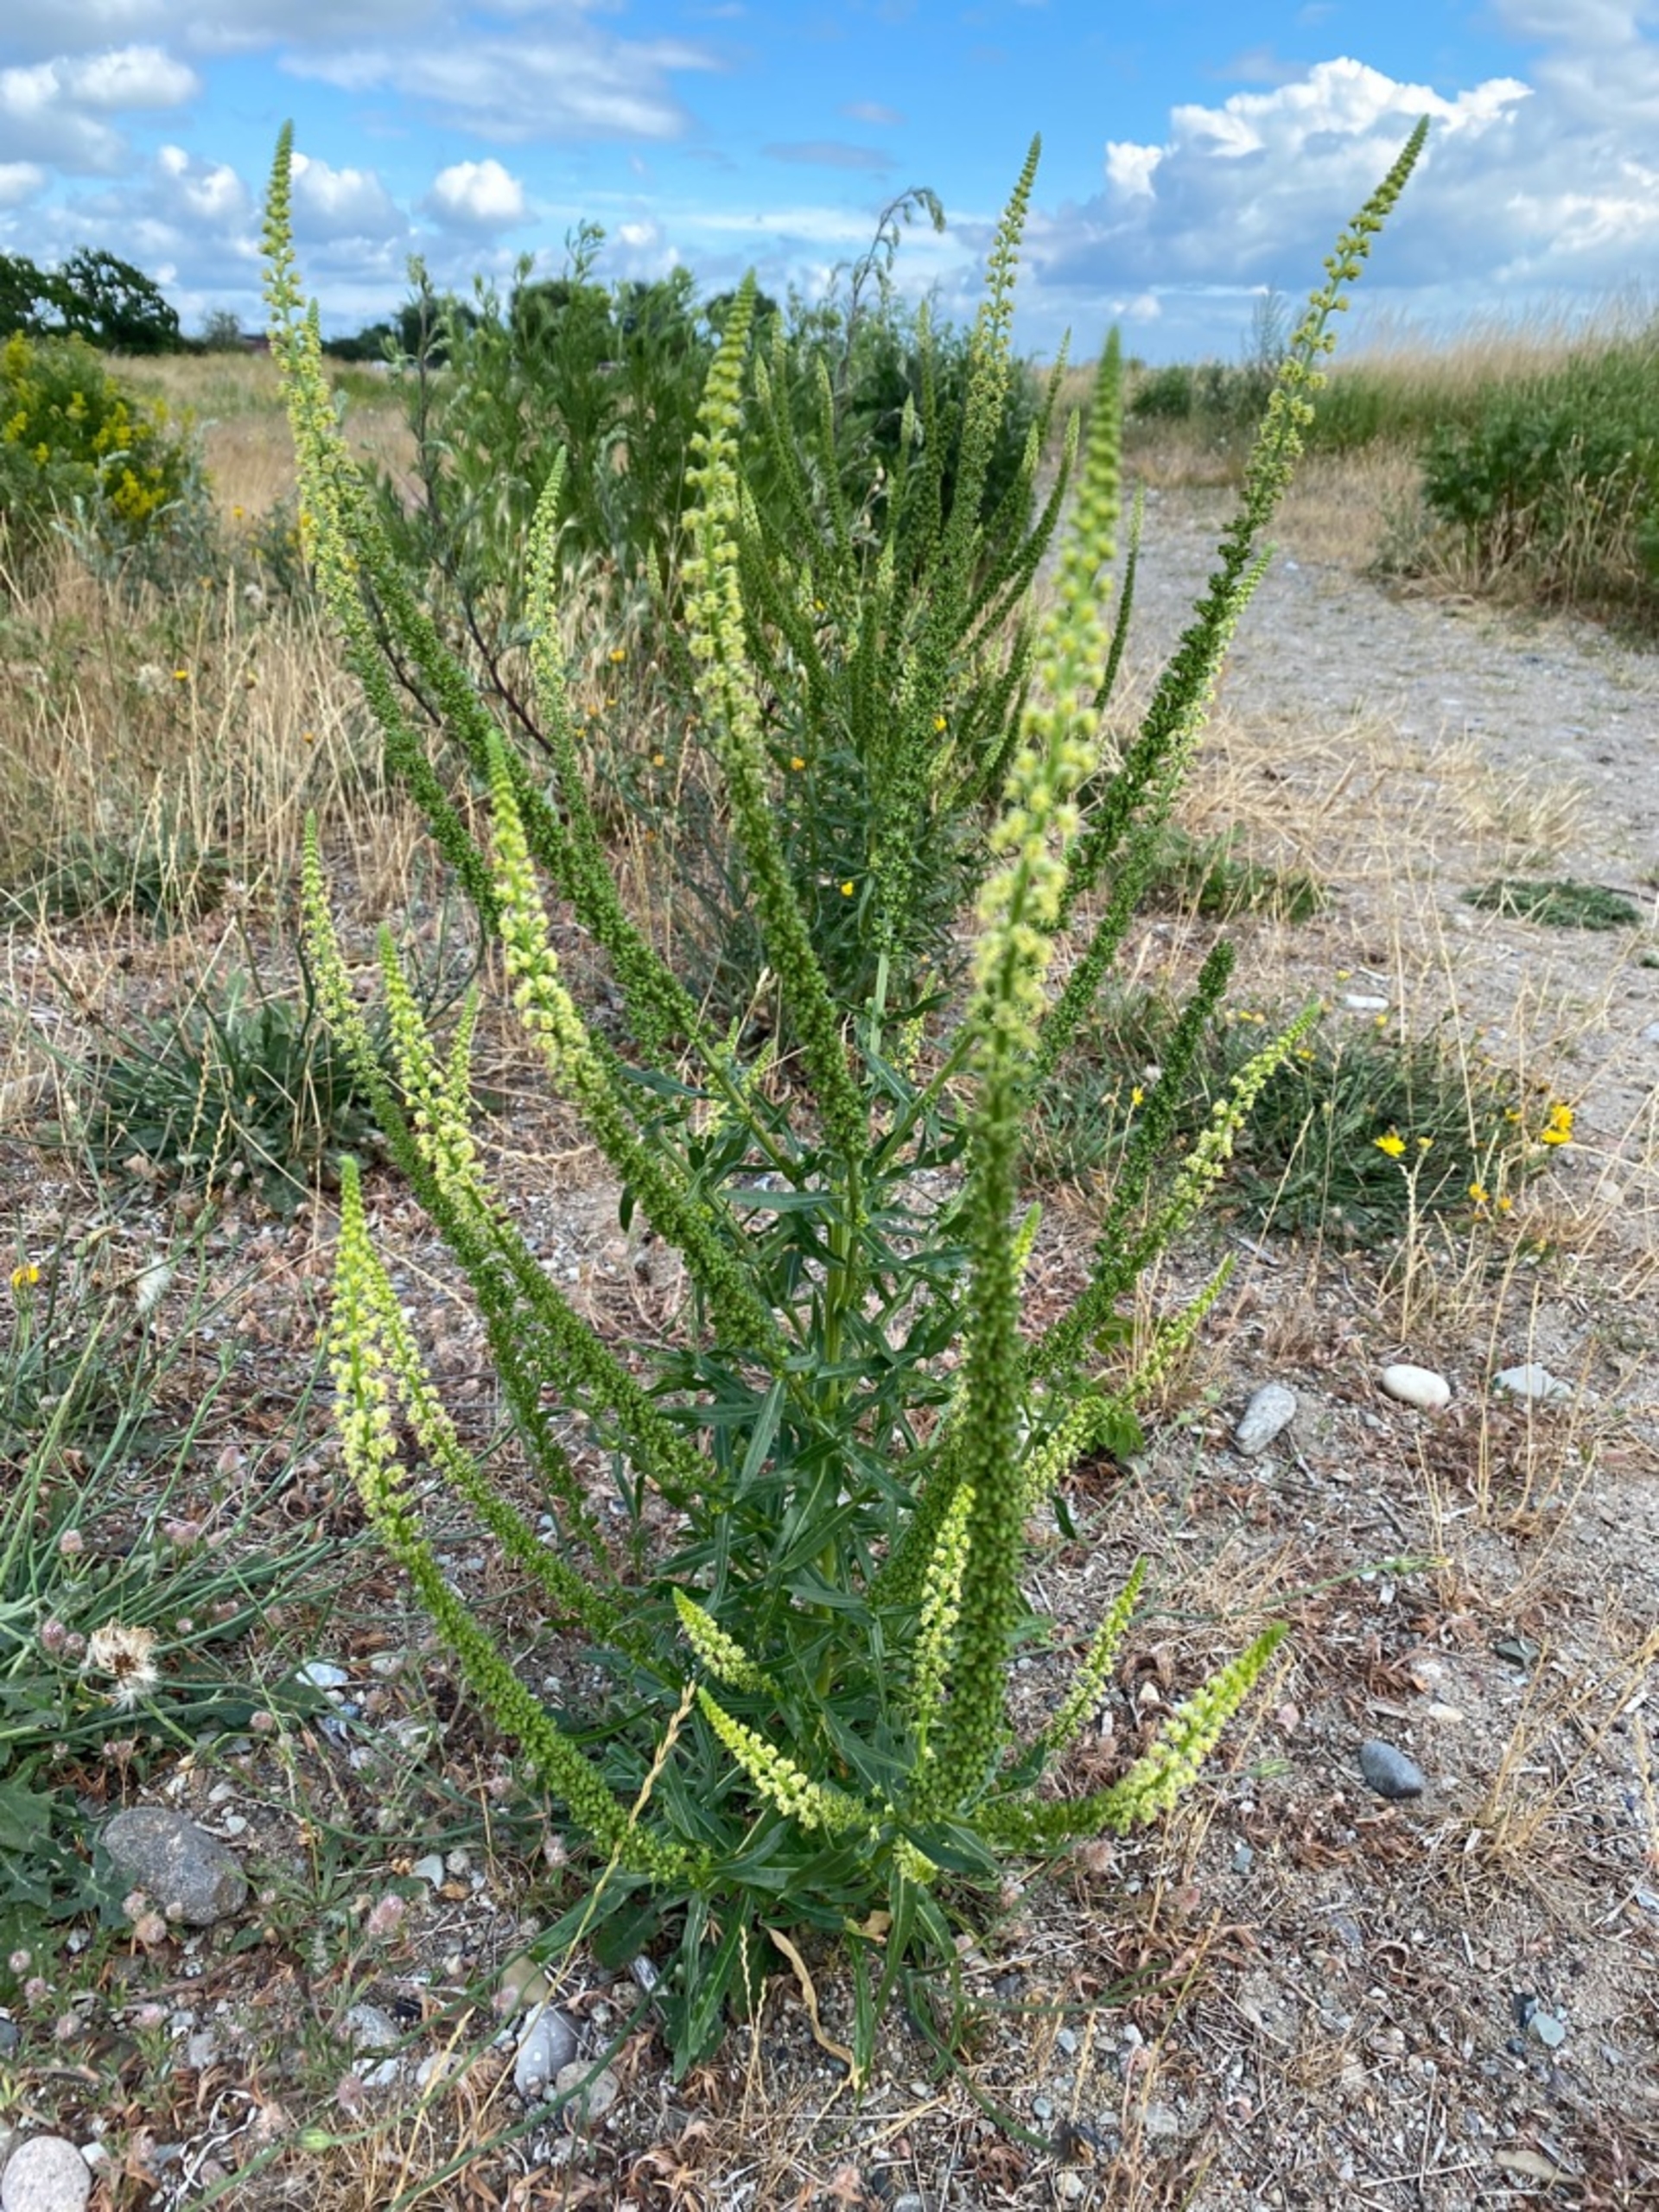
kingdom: Plantae
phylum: Tracheophyta
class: Magnoliopsida
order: Brassicales
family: Resedaceae
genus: Reseda
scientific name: Reseda luteola
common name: Farve-reseda
